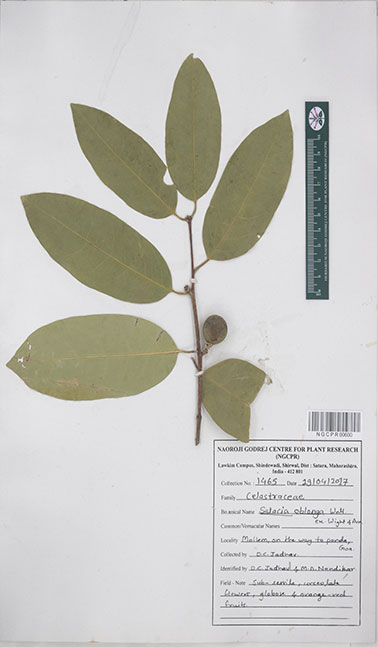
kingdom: Plantae
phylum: Tracheophyta
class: Magnoliopsida
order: Celastrales
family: Celastraceae
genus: Salacia
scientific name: Salacia oblonga
